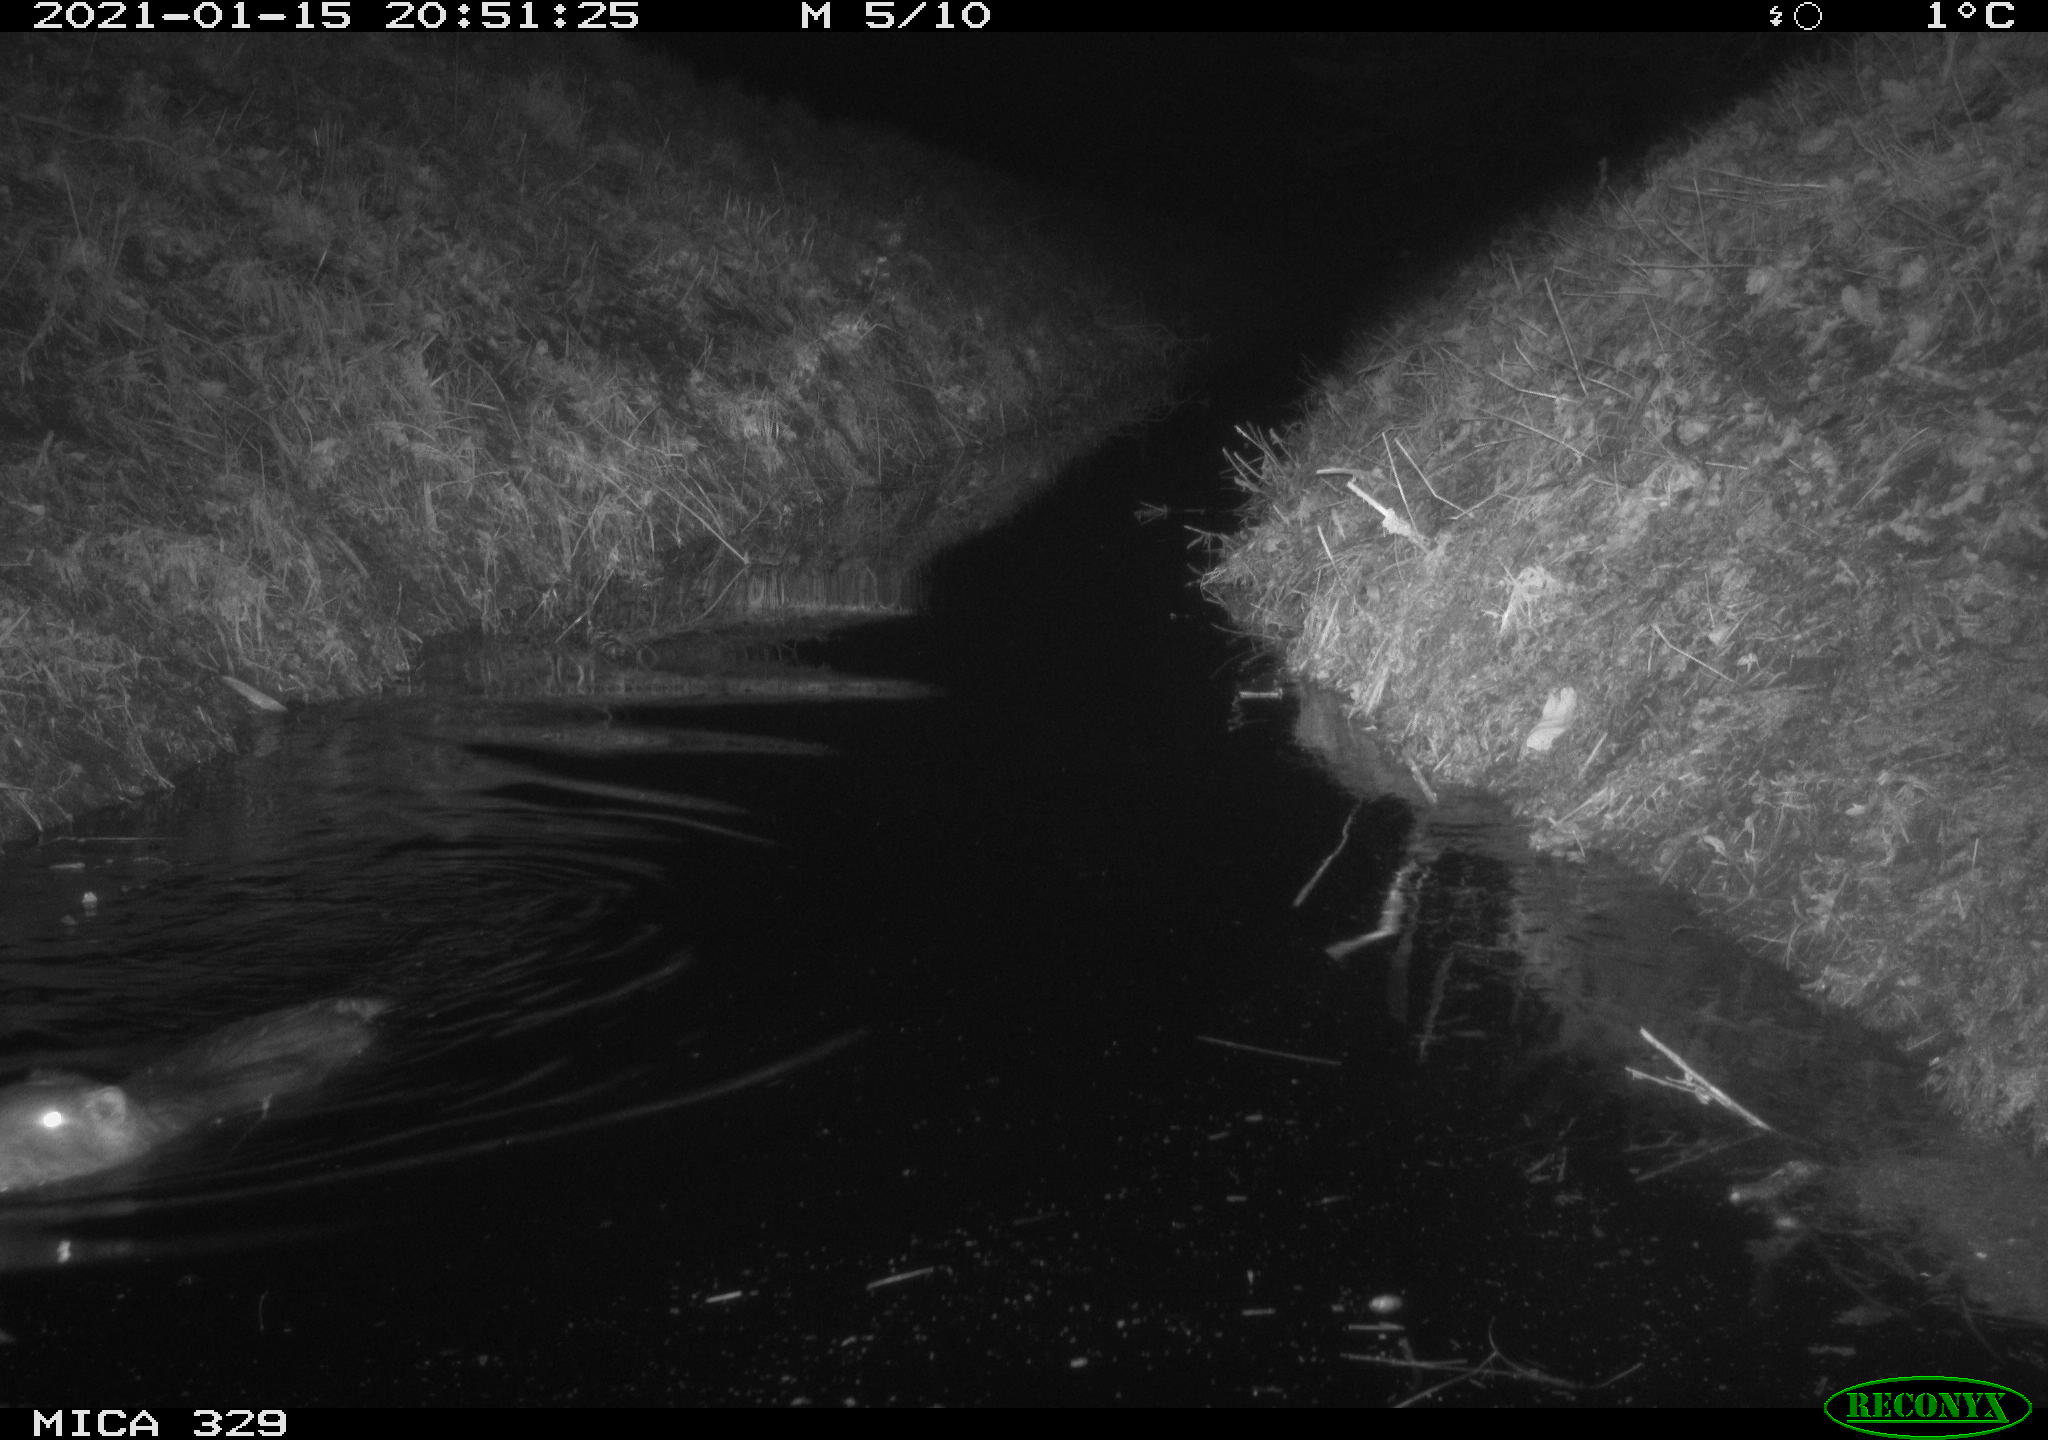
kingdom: Animalia
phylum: Chordata
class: Mammalia
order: Rodentia
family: Myocastoridae
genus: Myocastor
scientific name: Myocastor coypus
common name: Coypu
